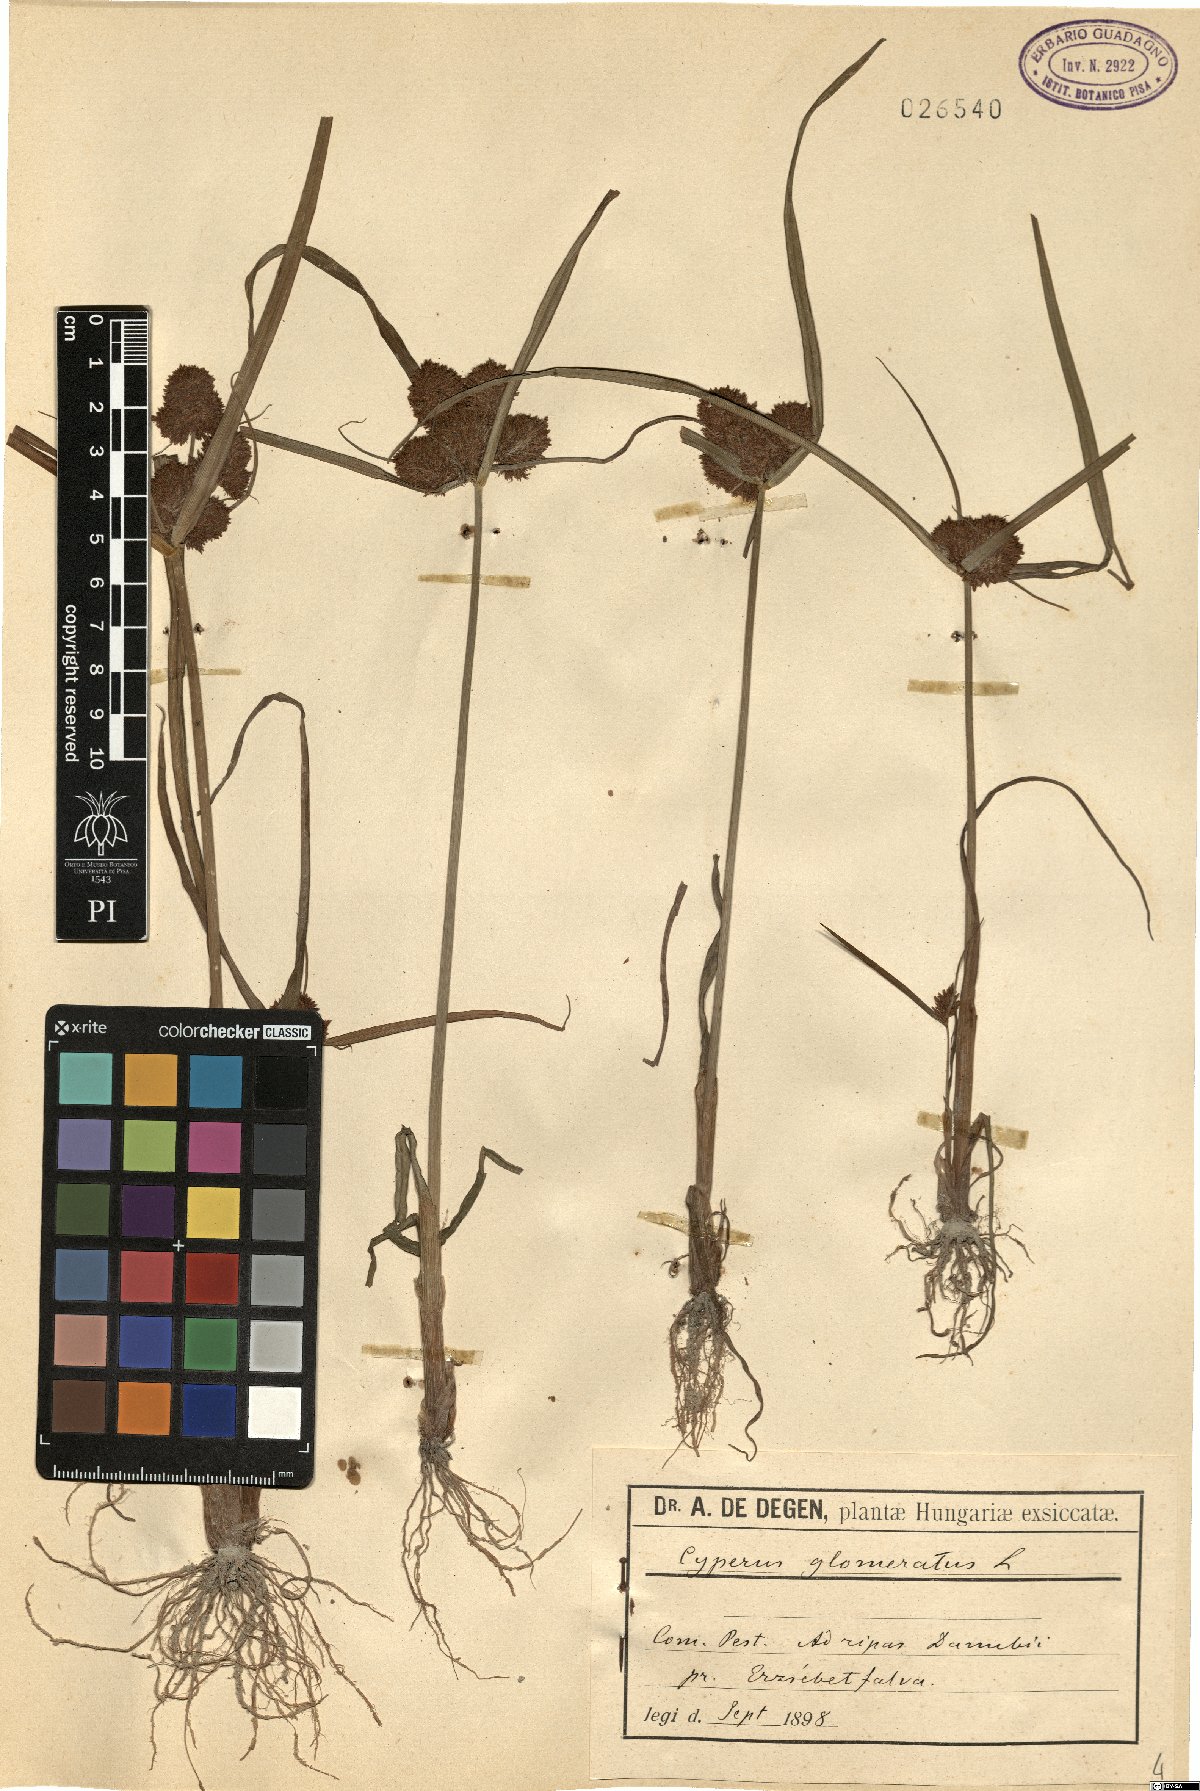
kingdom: Plantae
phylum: Tracheophyta
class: Liliopsida
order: Poales
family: Cyperaceae
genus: Cyperus
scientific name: Cyperus glomeratus
